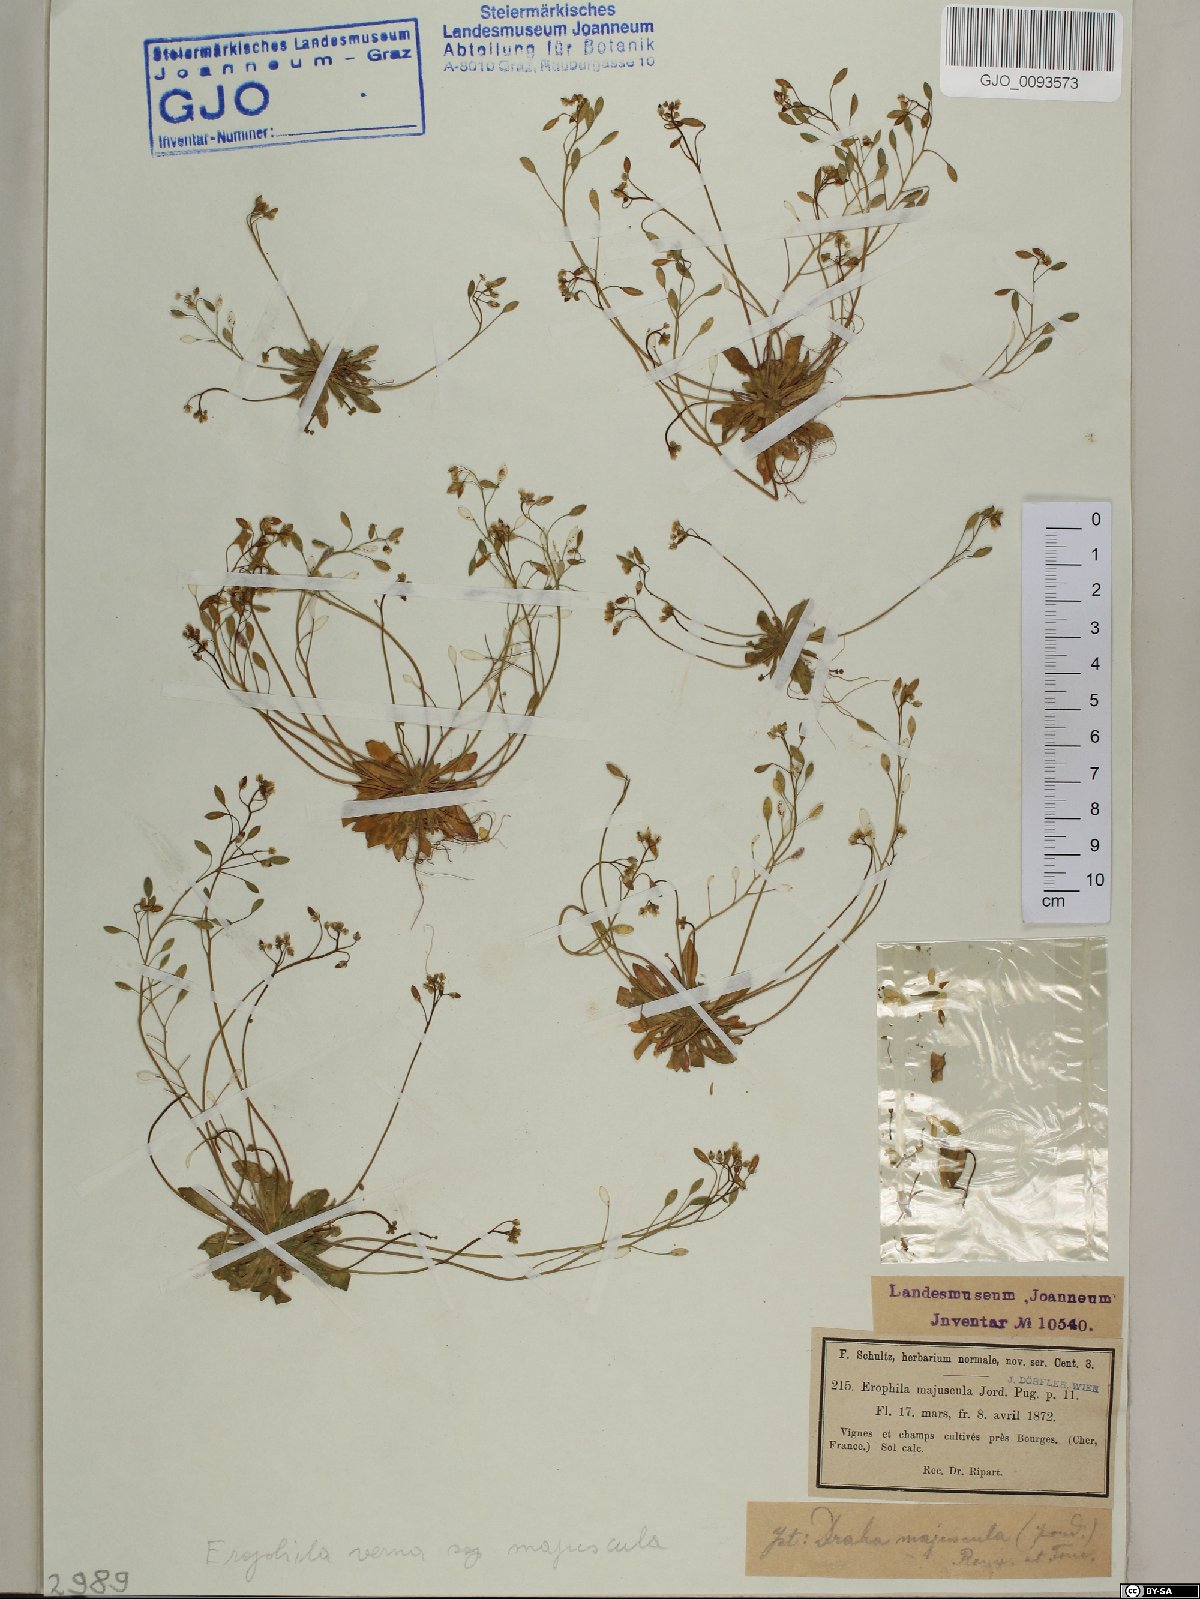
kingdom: Plantae
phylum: Tracheophyta
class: Magnoliopsida
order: Brassicales
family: Brassicaceae
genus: Draba
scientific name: Draba verna
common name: Spring draba
